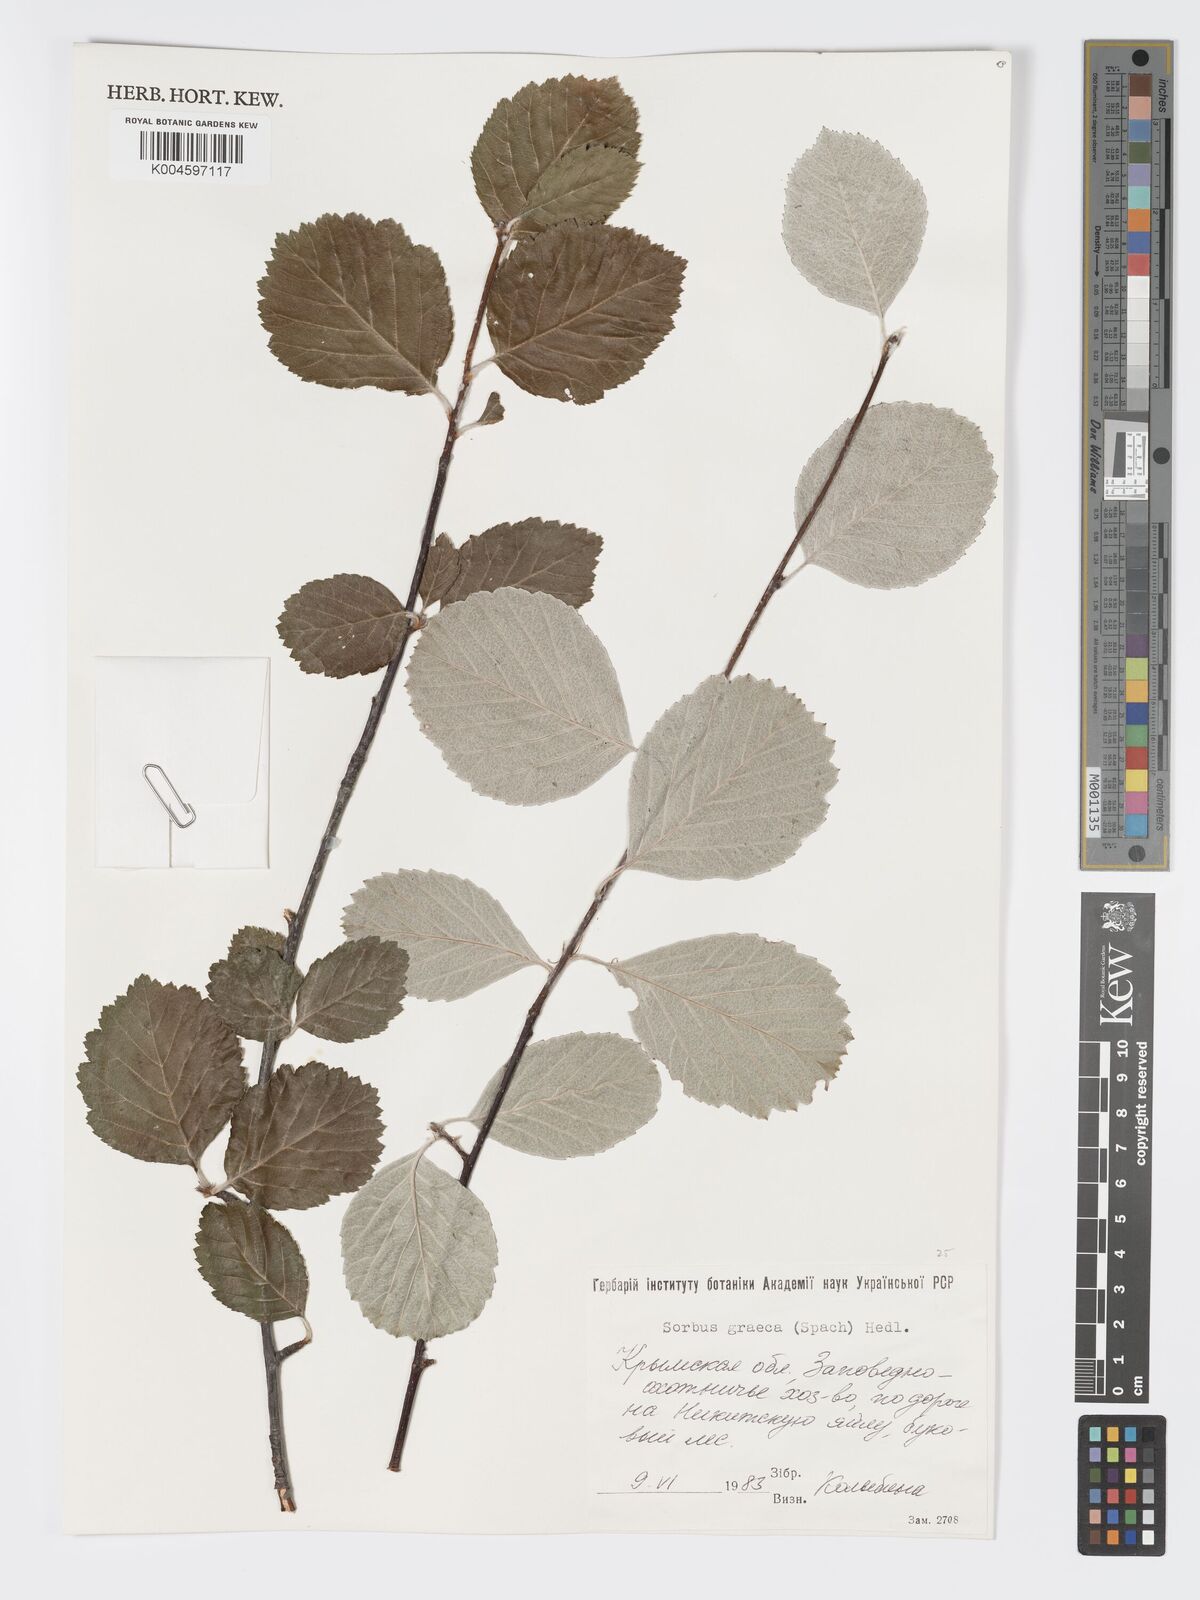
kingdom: Plantae
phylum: Tracheophyta
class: Magnoliopsida
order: Rosales
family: Rosaceae
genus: Aria
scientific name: Aria graeca
